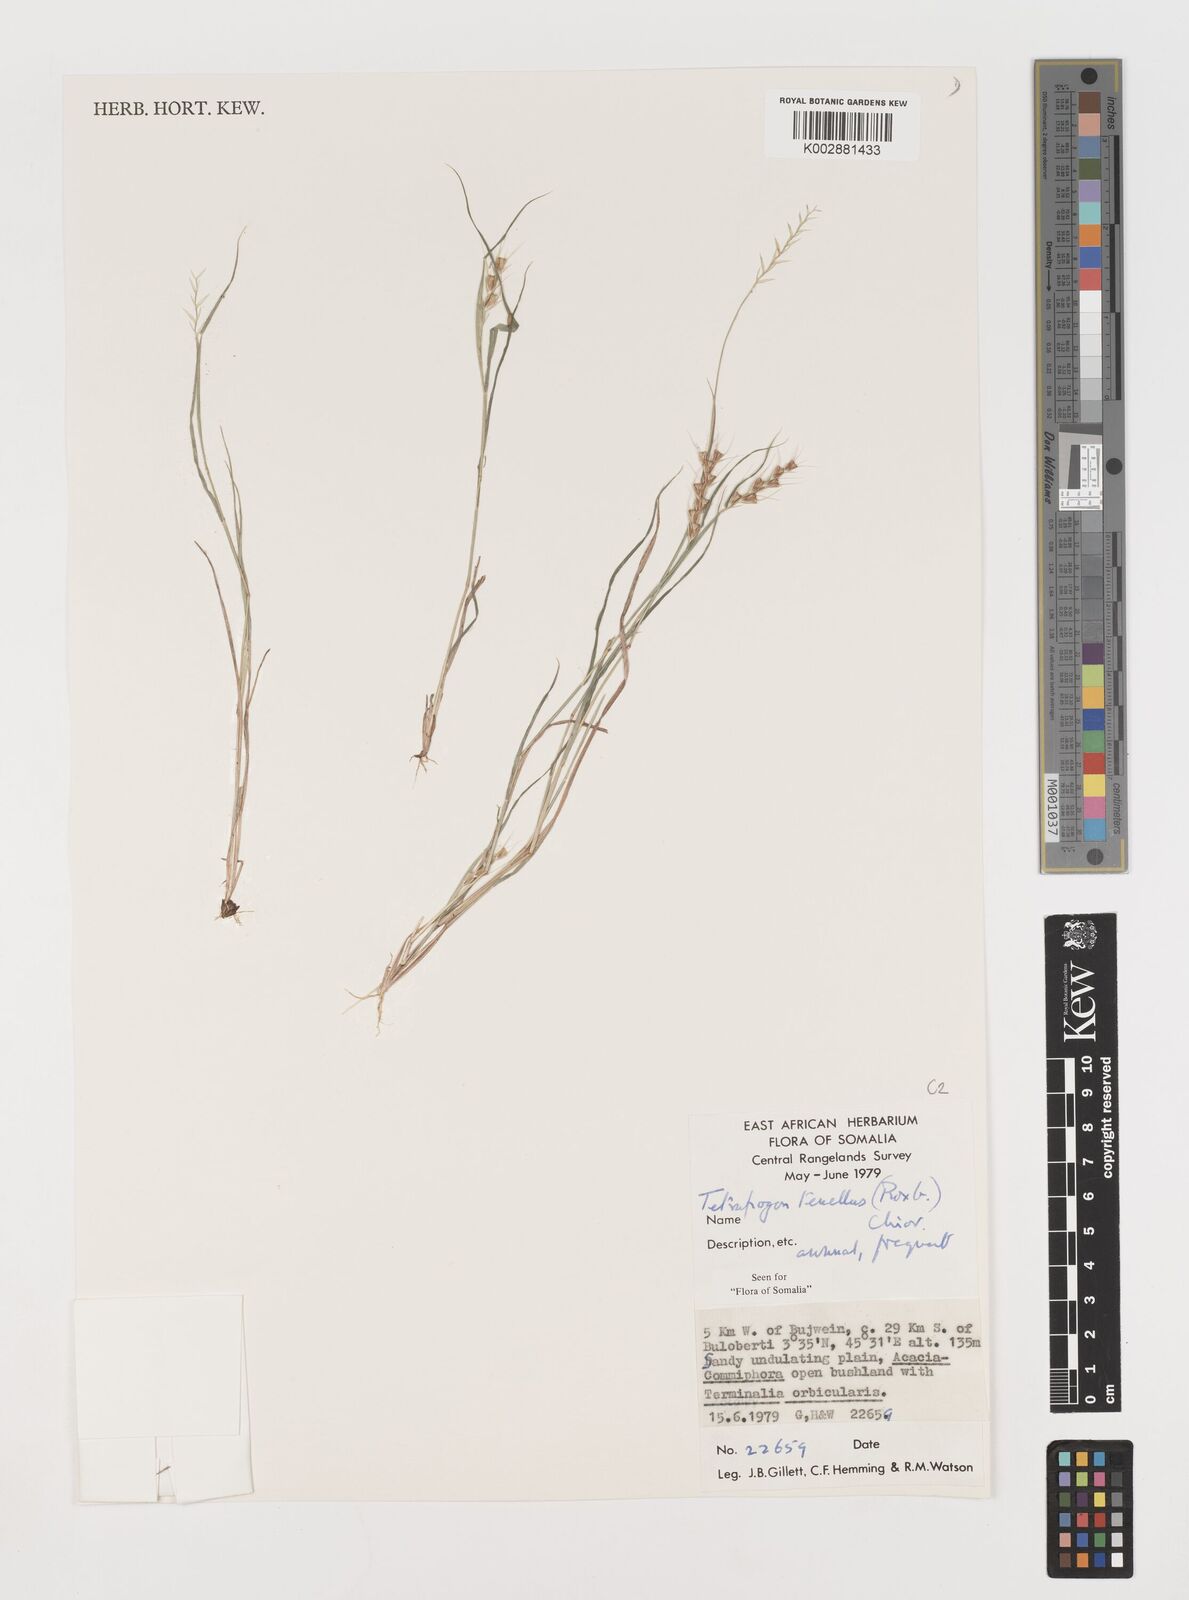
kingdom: Plantae
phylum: Tracheophyta
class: Liliopsida
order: Poales
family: Poaceae
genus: Tetrapogon
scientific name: Tetrapogon tenellus
